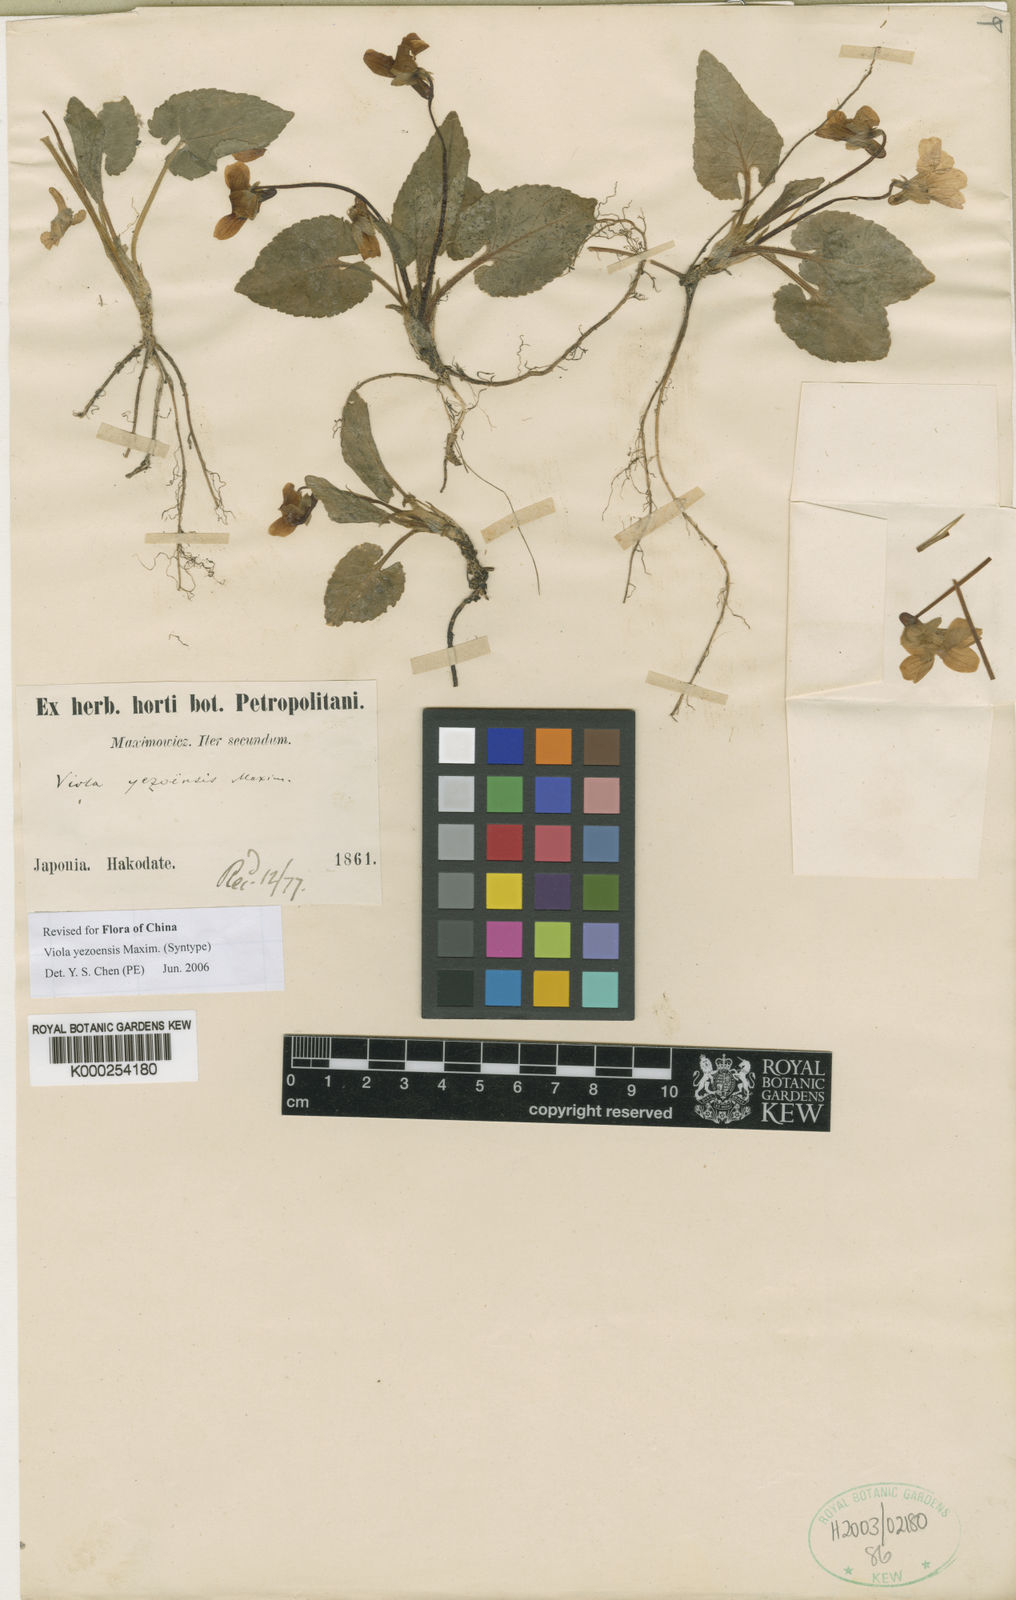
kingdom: Plantae
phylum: Tracheophyta
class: Magnoliopsida
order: Malpighiales
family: Violaceae
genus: Viola
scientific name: Viola yezoensis
